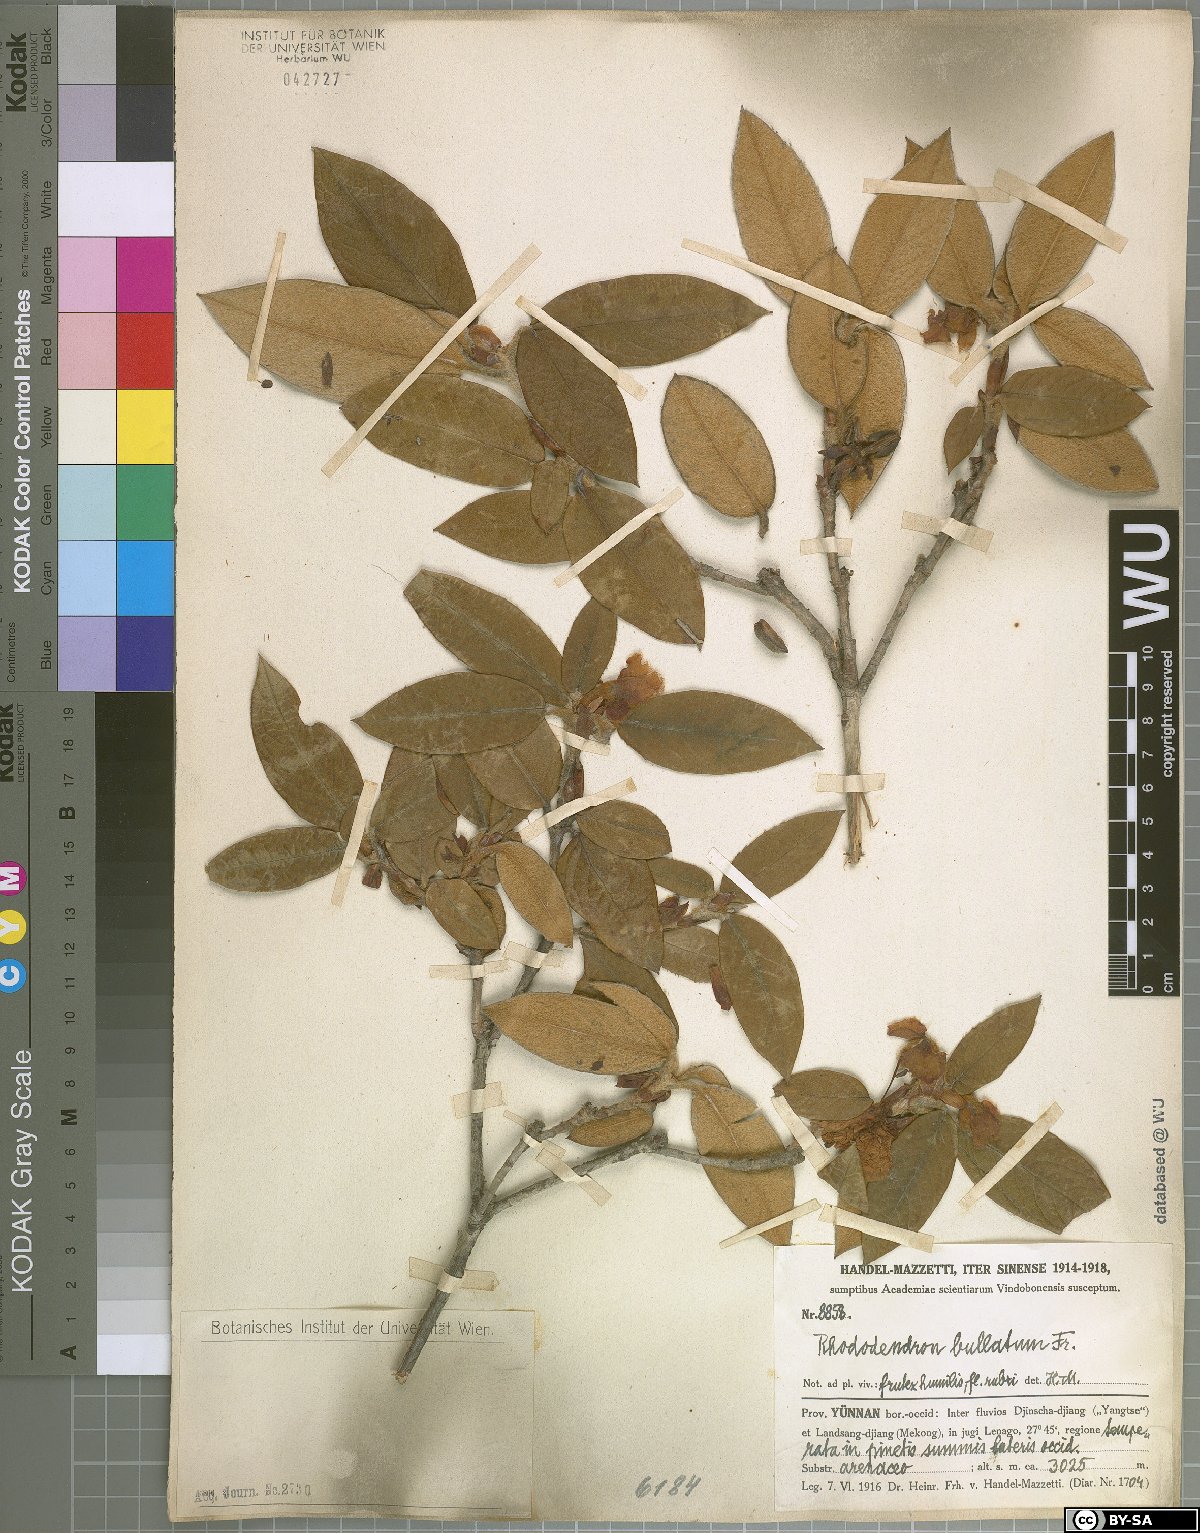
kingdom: Plantae
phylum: Tracheophyta
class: Magnoliopsida
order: Ericales
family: Ericaceae
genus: Rhododendron
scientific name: Rhododendron edgeworthii
